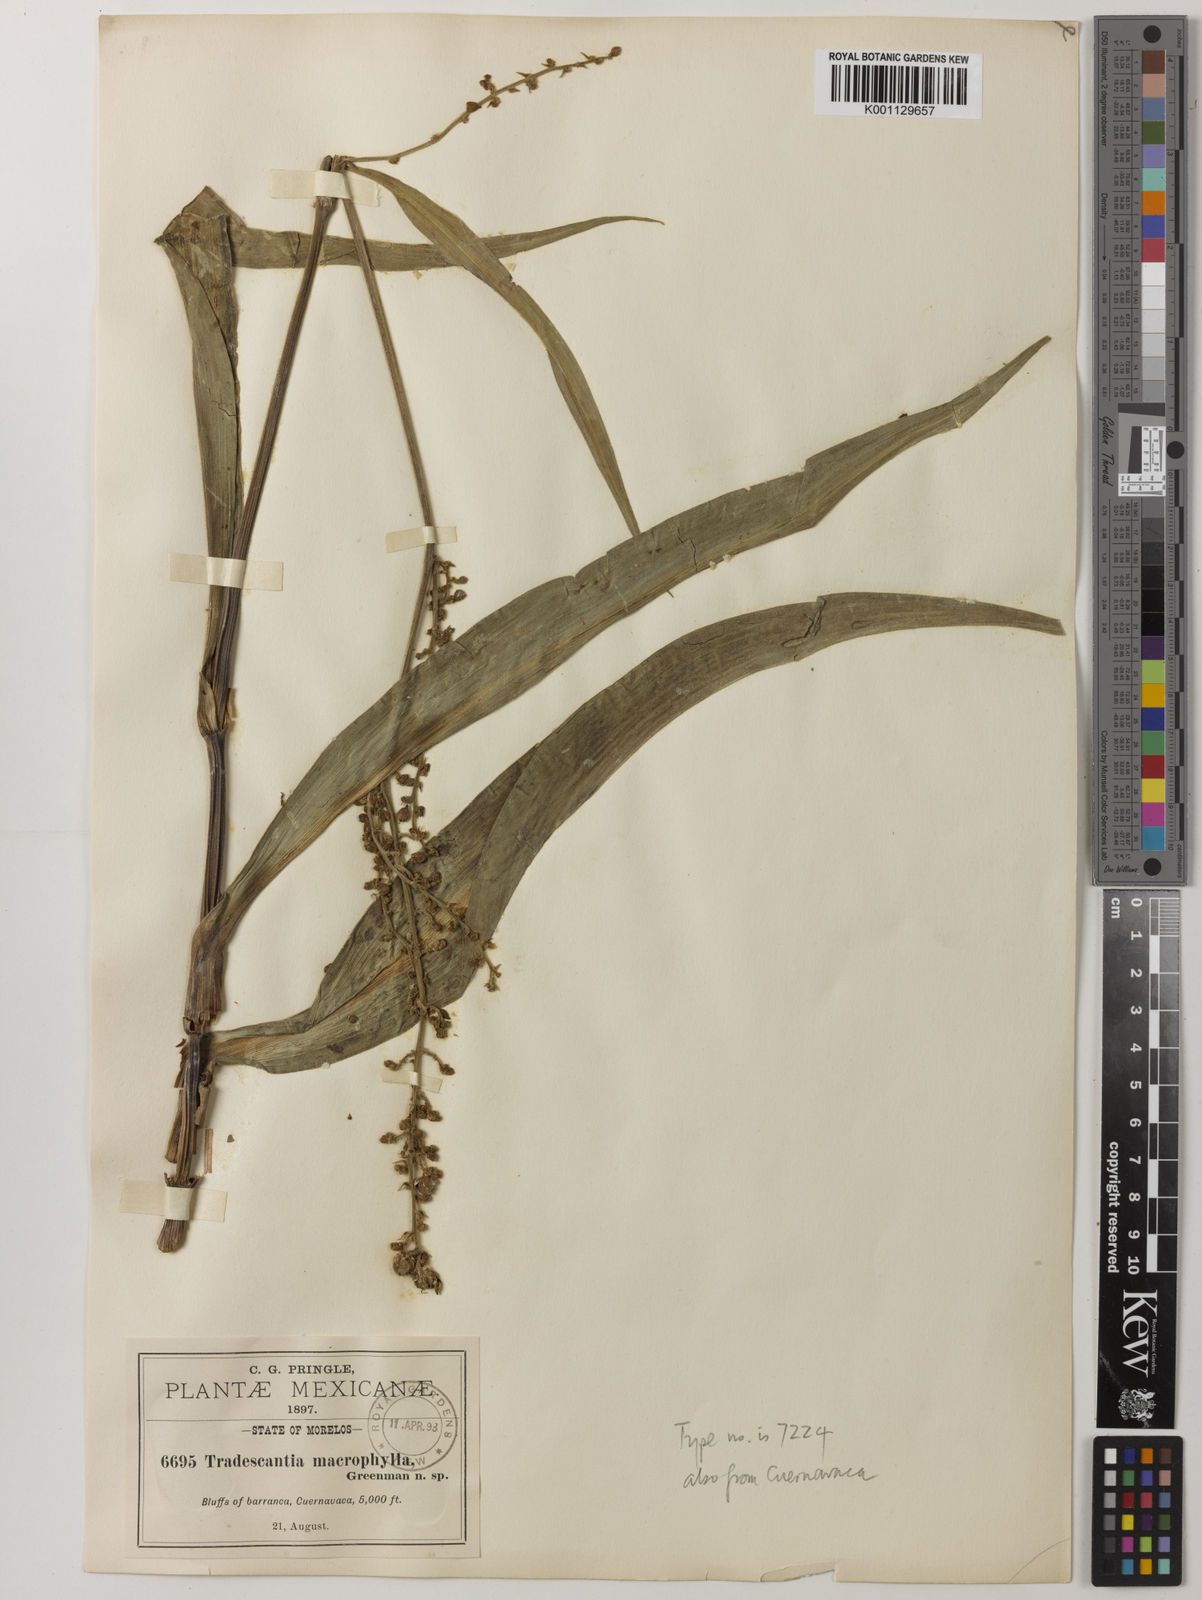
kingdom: Plantae
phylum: Tracheophyta
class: Liliopsida
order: Commelinales
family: Commelinaceae
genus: Thyrsanthemum
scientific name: Thyrsanthemum longifolium
